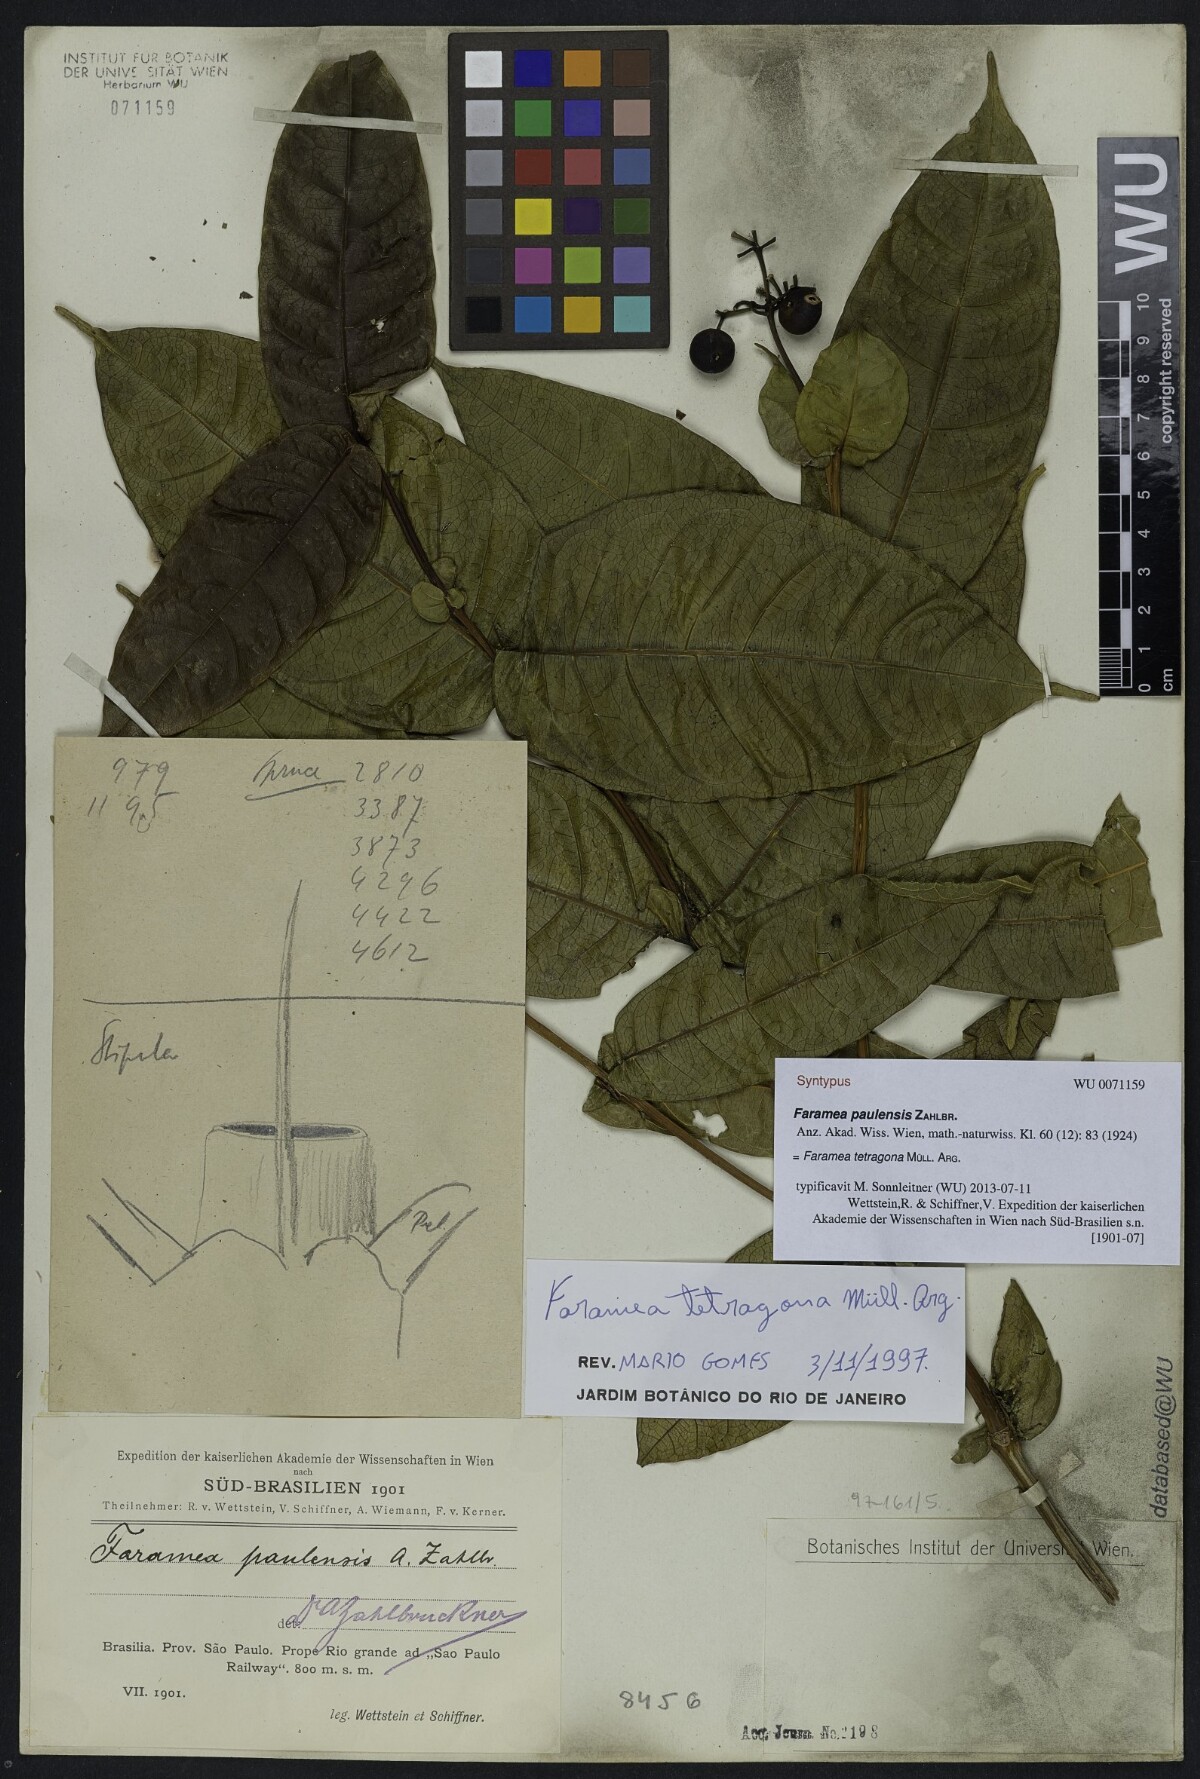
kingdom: Plantae
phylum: Tracheophyta
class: Magnoliopsida
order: Gentianales
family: Rubiaceae
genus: Faramea
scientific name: Faramea tetragona
